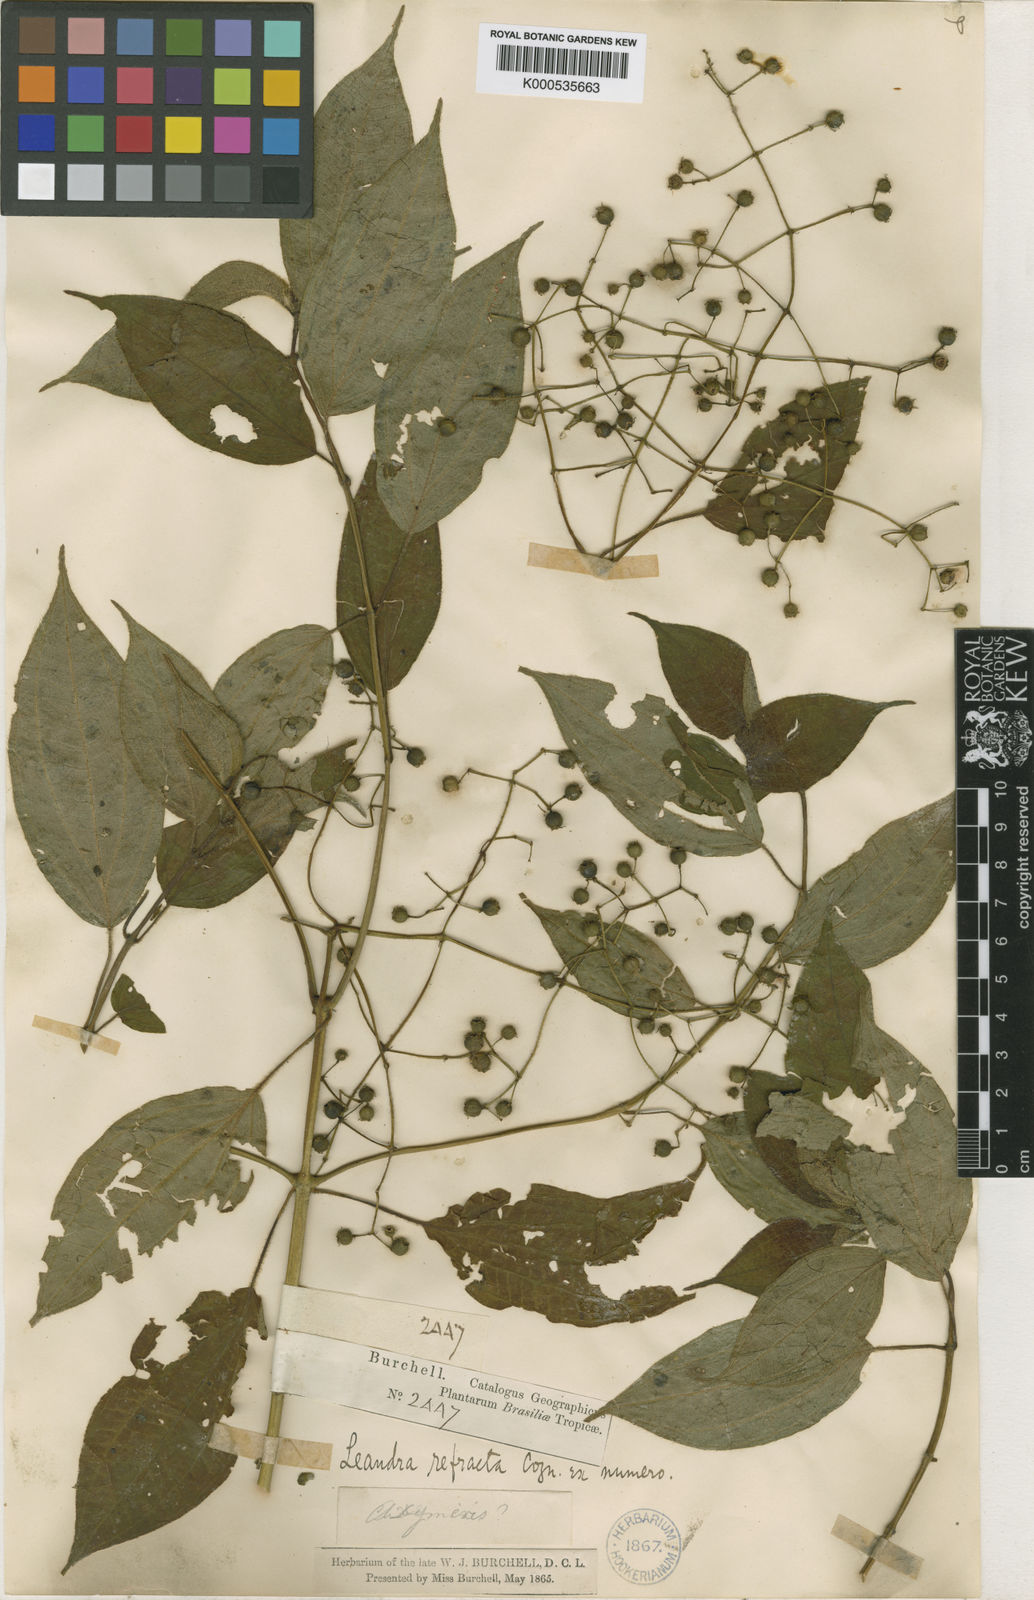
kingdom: Plantae
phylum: Tracheophyta
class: Magnoliopsida
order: Myrtales
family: Melastomataceae
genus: Miconia
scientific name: Miconia refracta
